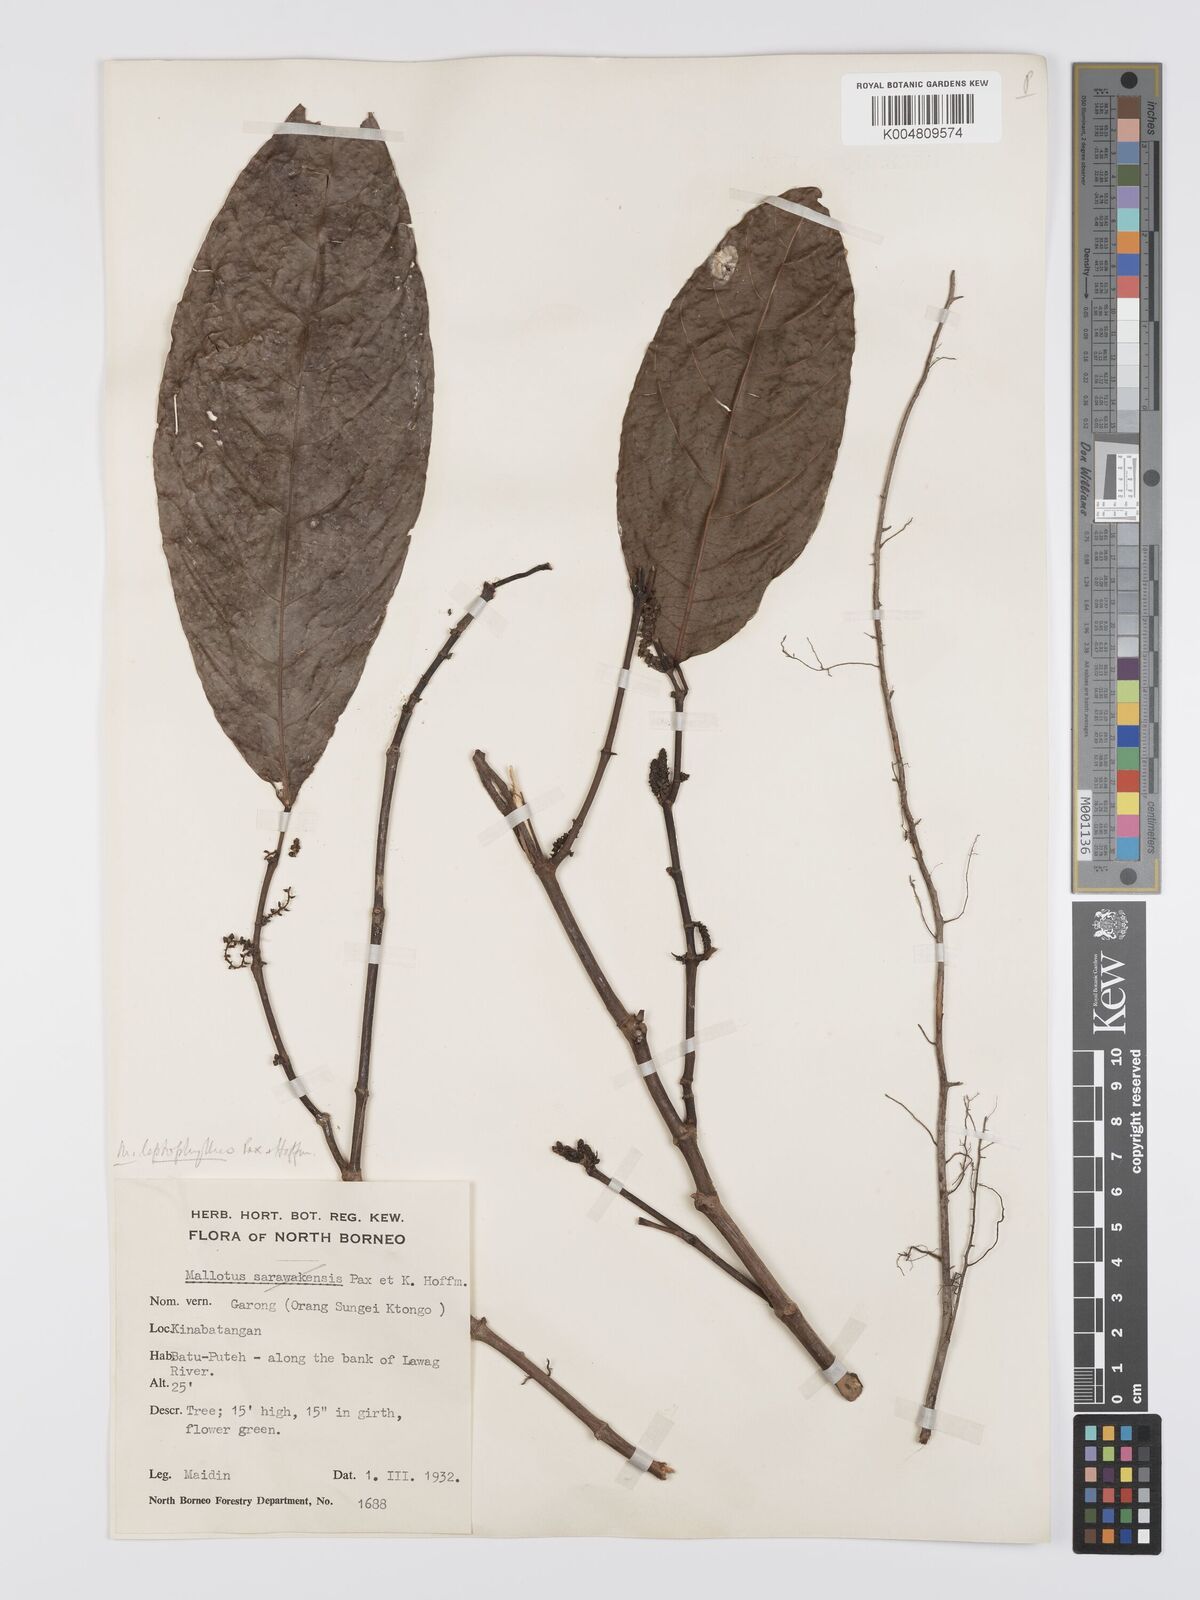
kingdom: Plantae
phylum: Tracheophyta
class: Magnoliopsida
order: Malpighiales
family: Euphorbiaceae
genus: Hancea
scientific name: Hancea penangensis
